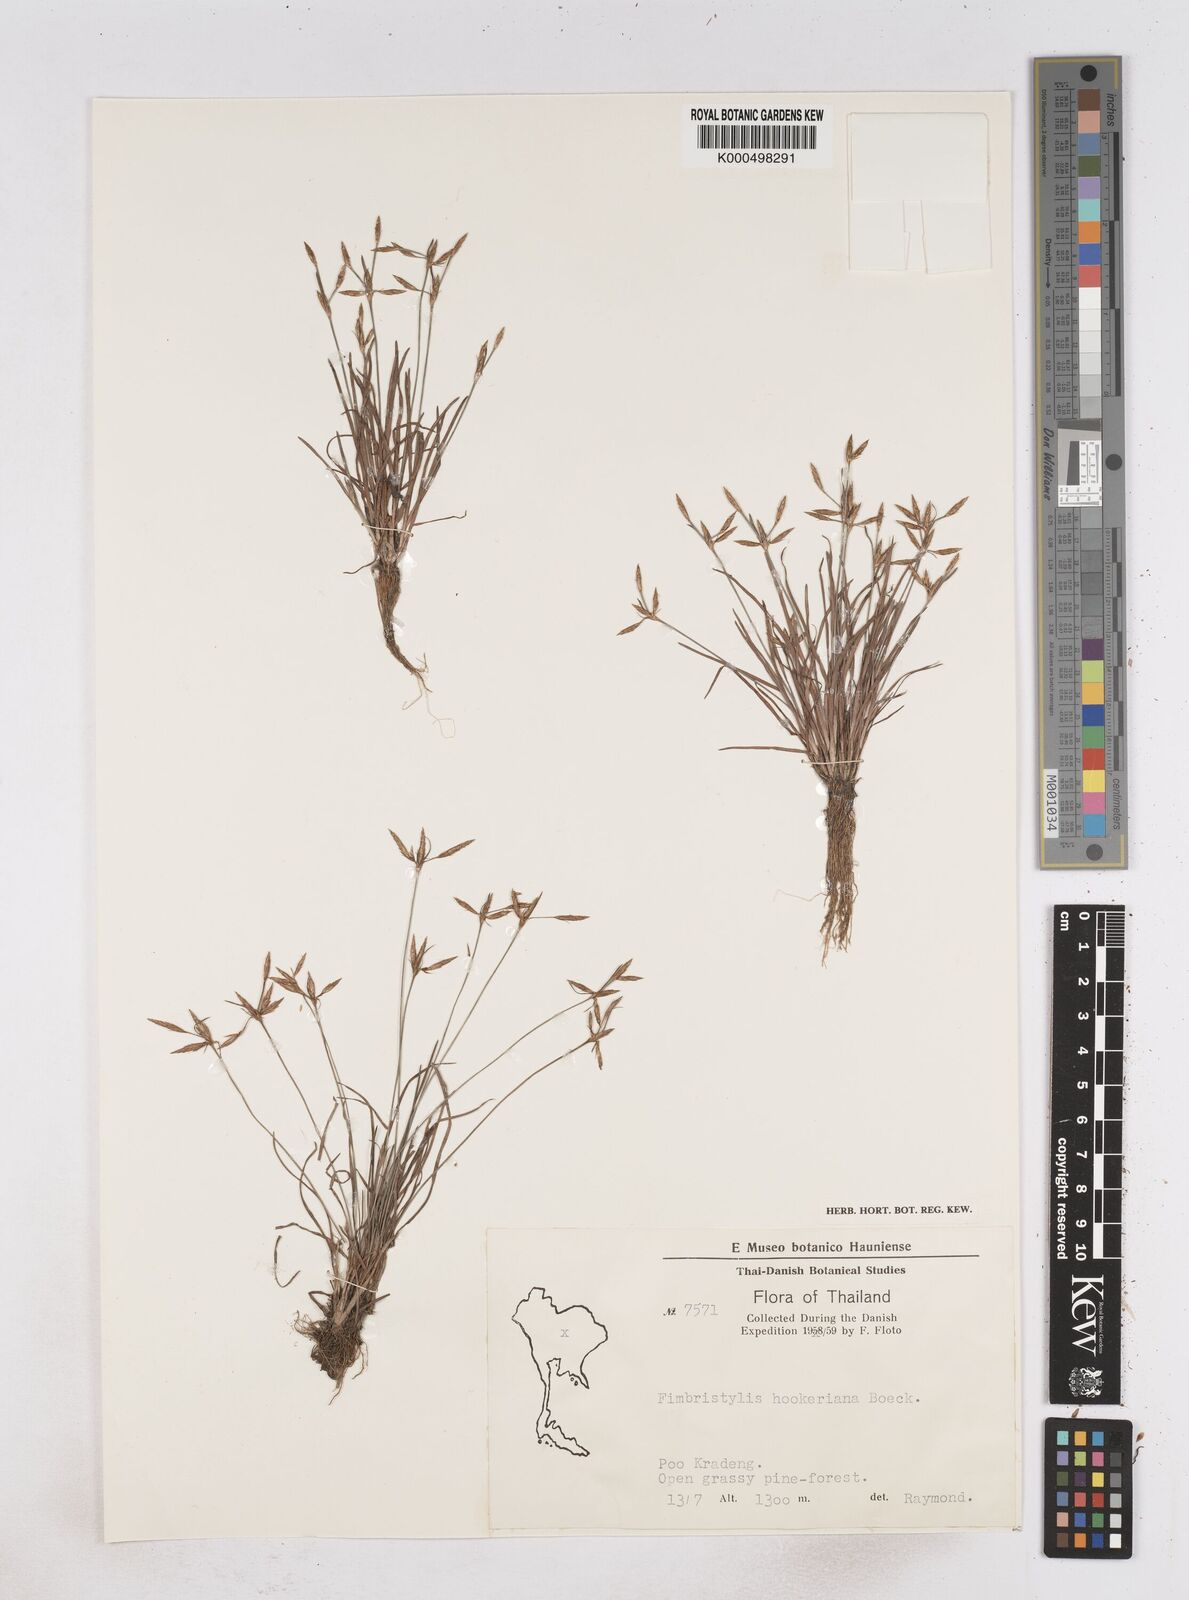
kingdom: Plantae
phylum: Tracheophyta
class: Liliopsida
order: Poales
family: Cyperaceae
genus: Fimbristylis
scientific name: Fimbristylis hookeriana
